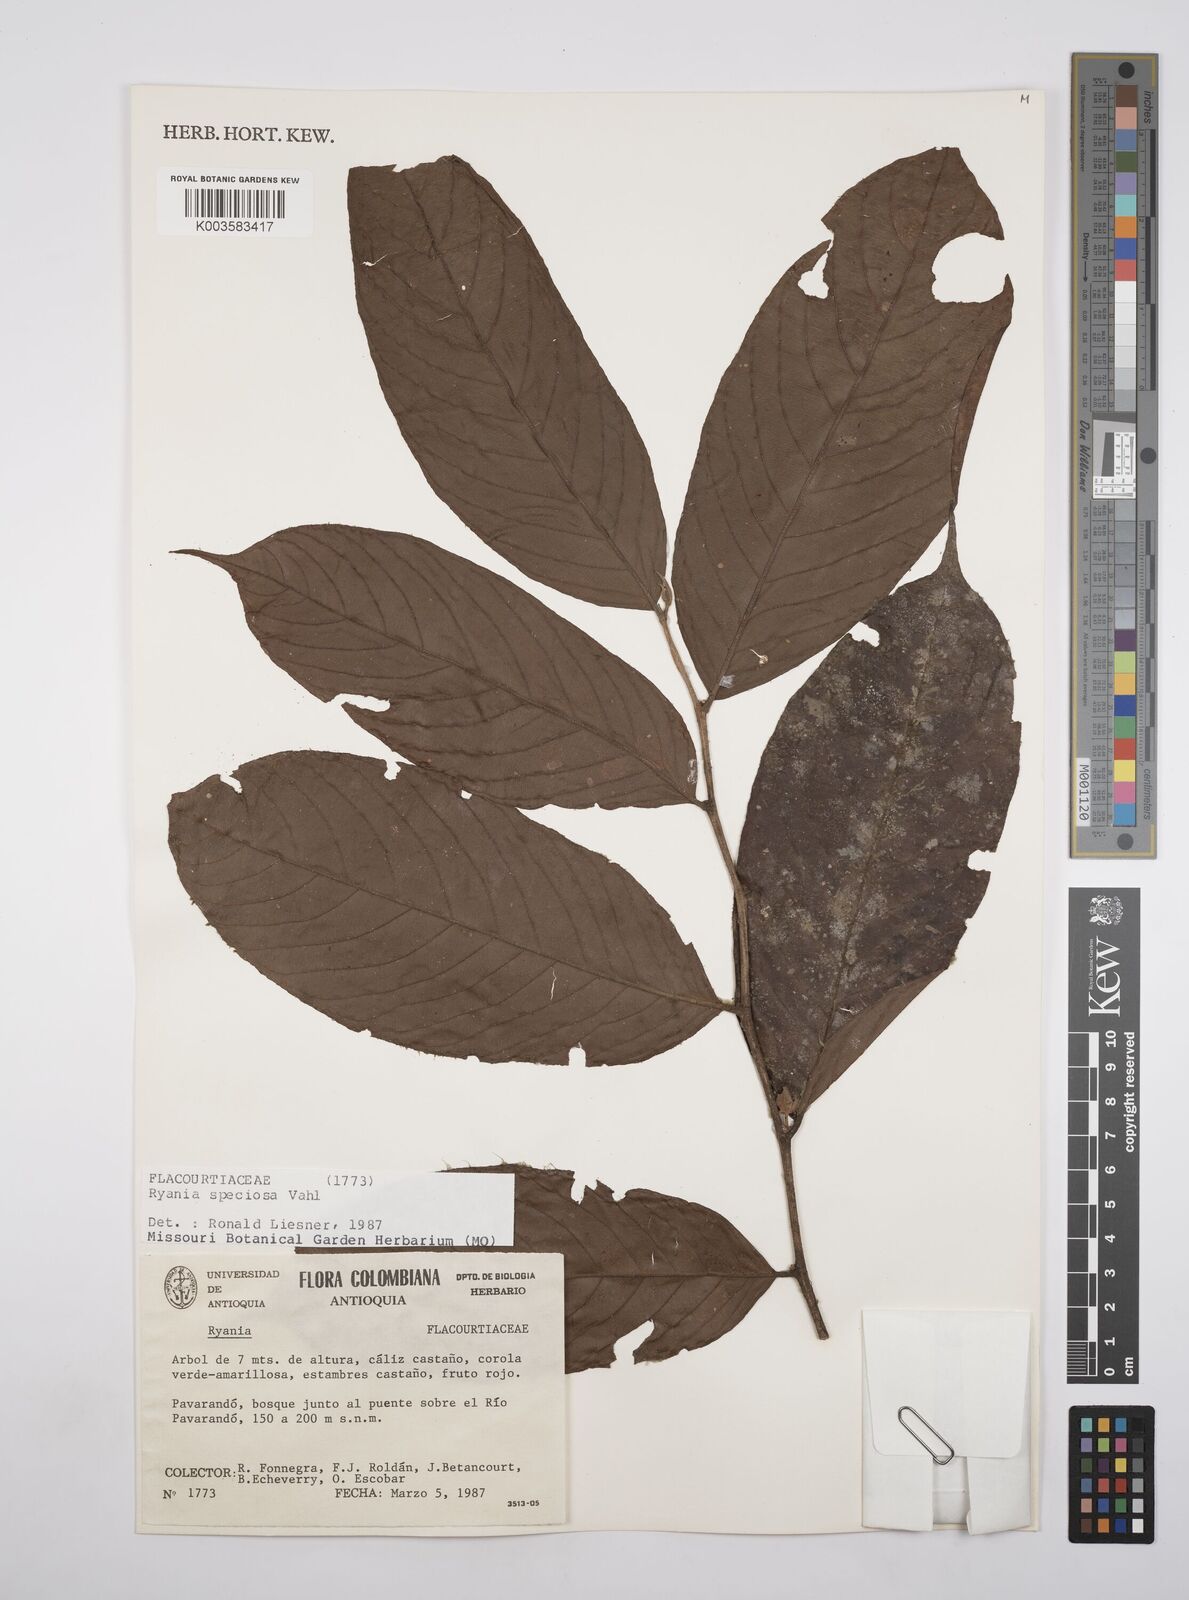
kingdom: Plantae
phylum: Tracheophyta
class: Magnoliopsida
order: Malpighiales
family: Salicaceae
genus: Ryania
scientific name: Ryania speciosa
